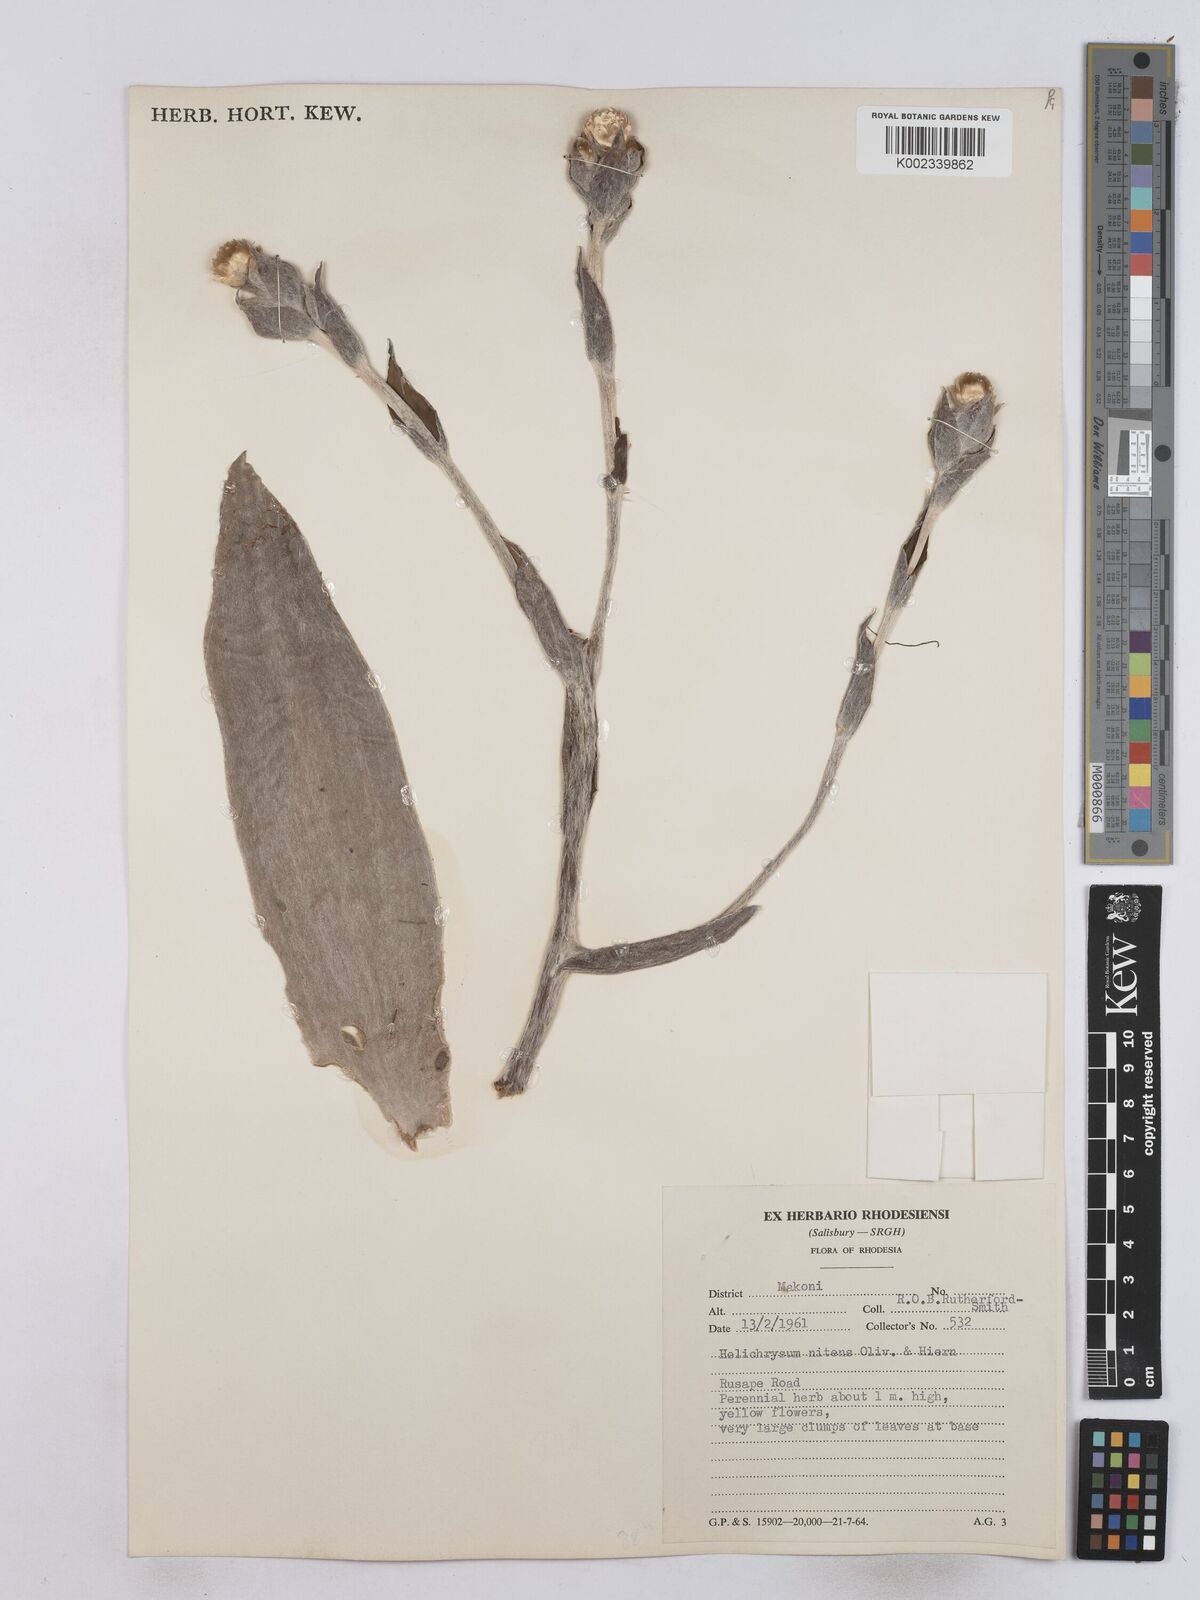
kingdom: Plantae
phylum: Tracheophyta
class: Magnoliopsida
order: Asterales
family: Asteraceae
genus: Helichrysum
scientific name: Helichrysum nitens
